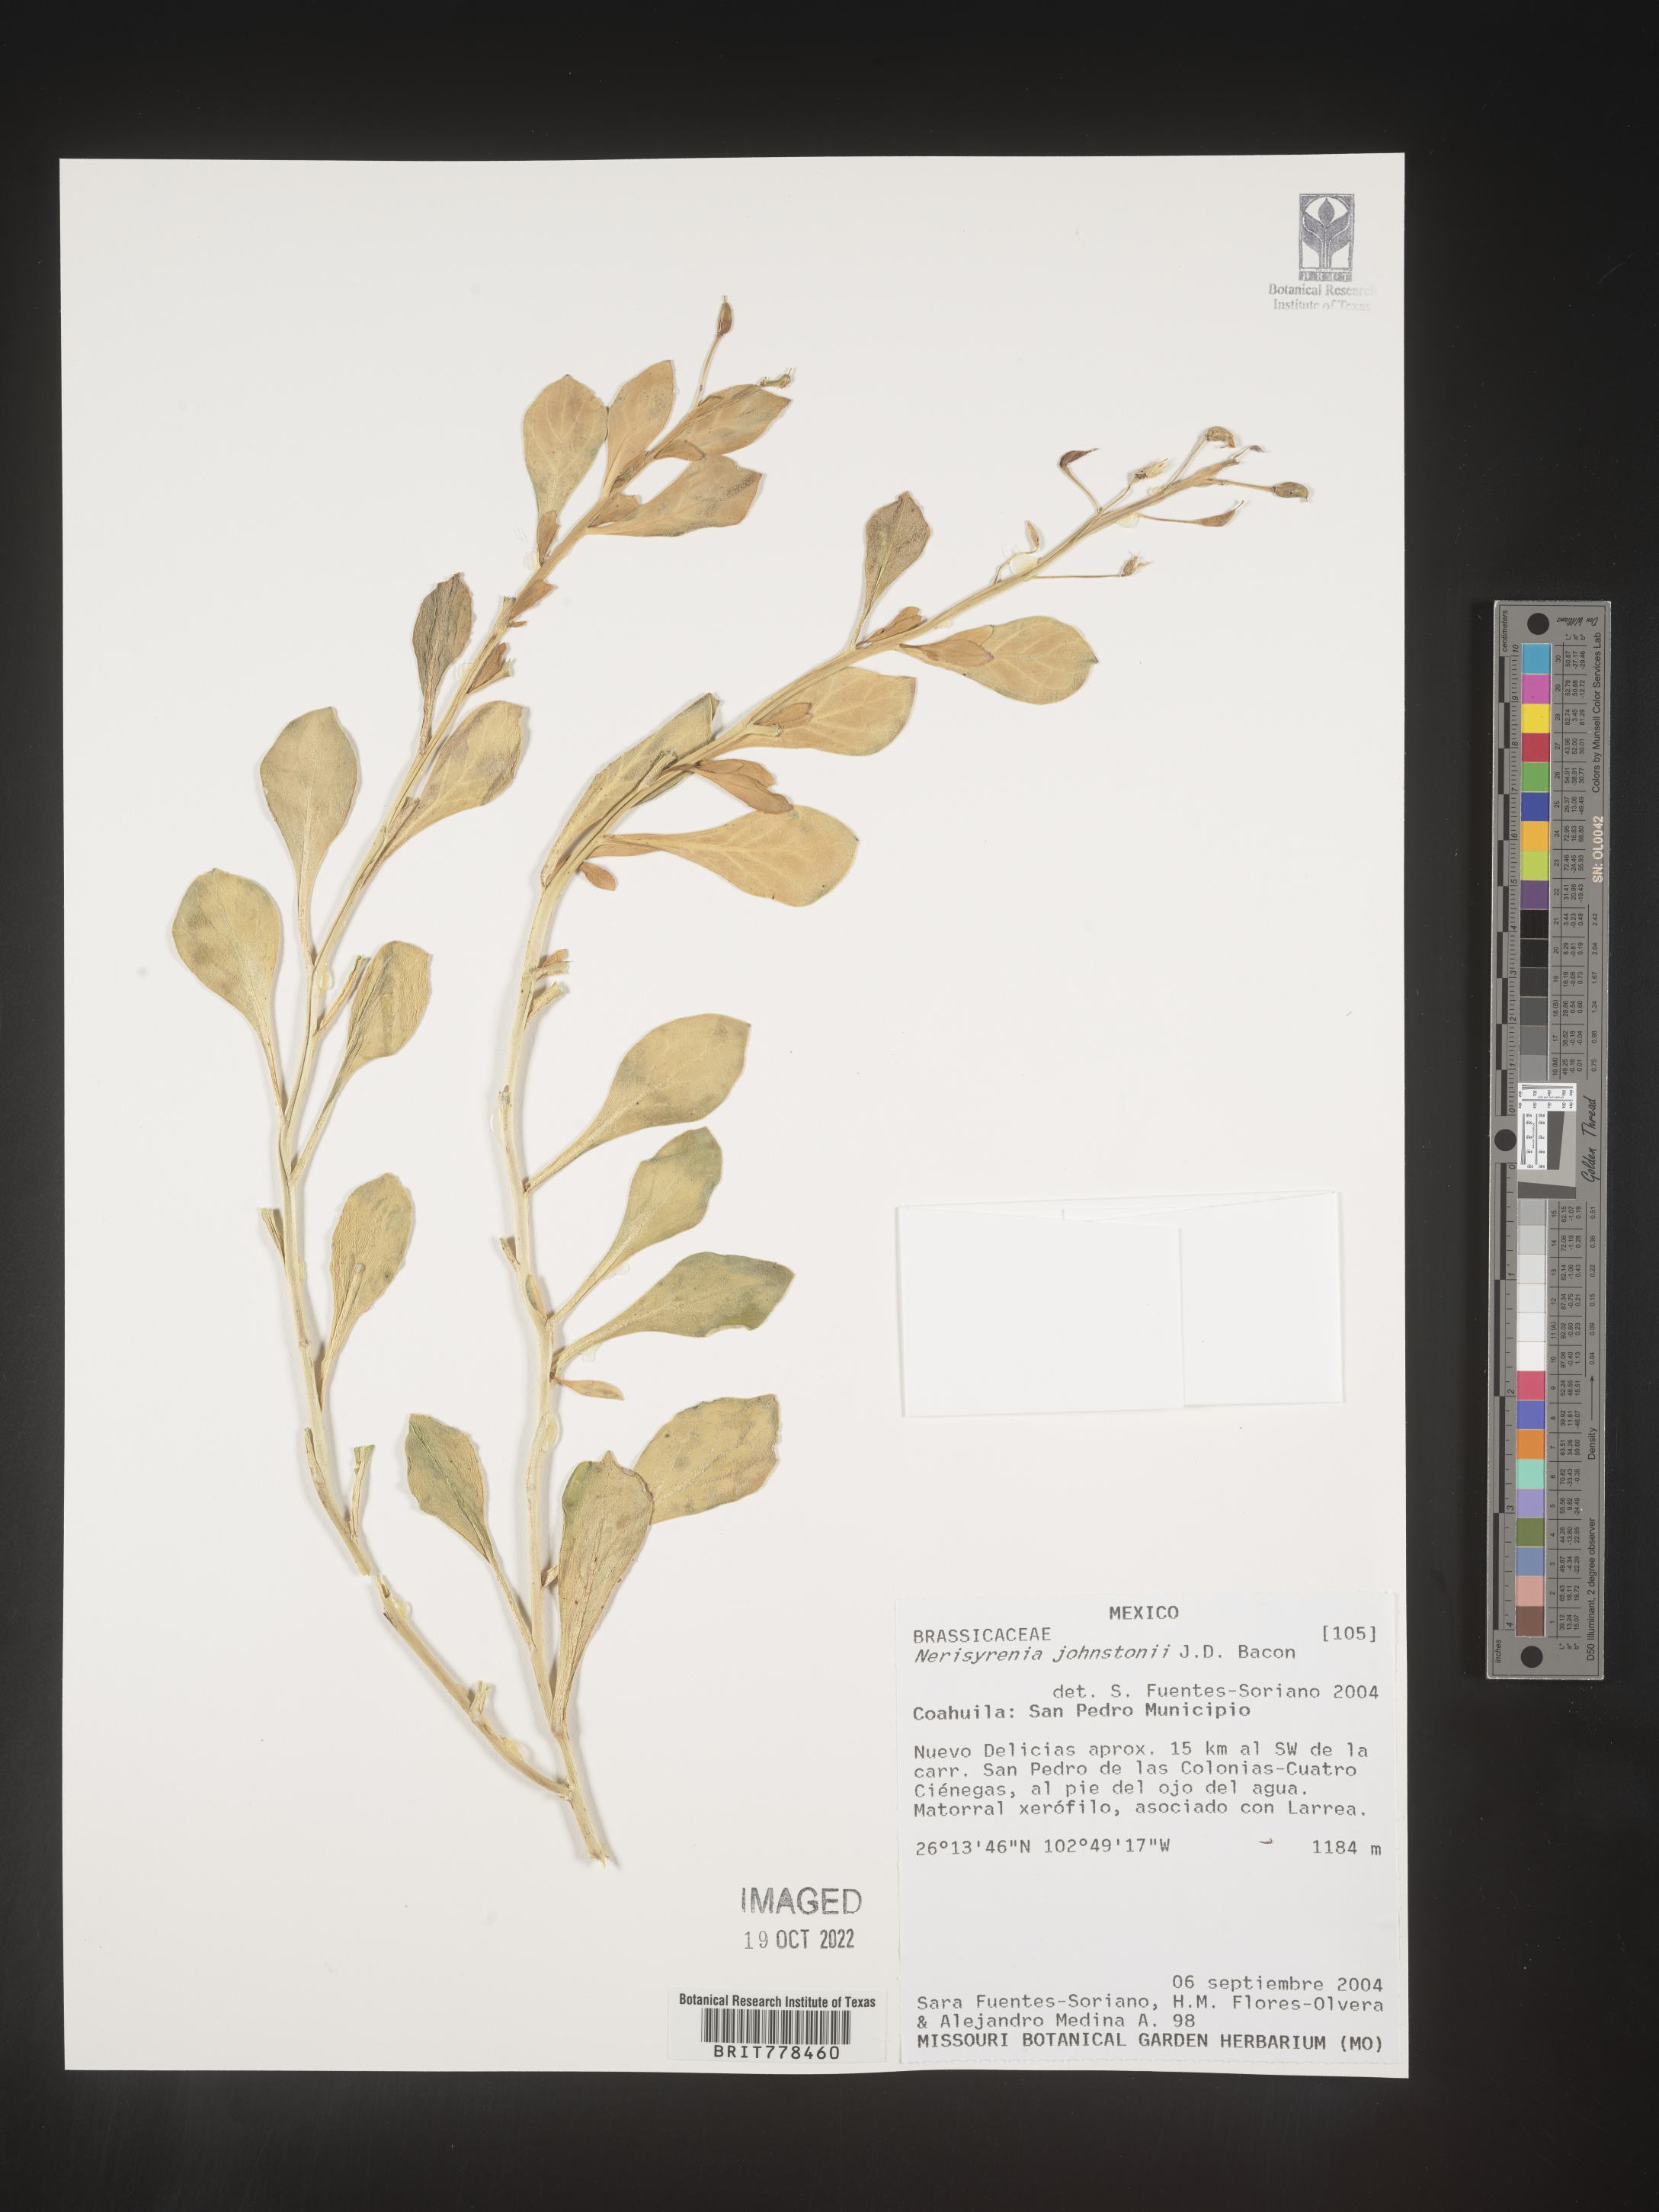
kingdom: Plantae
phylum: Tracheophyta
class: Magnoliopsida
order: Brassicales
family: Brassicaceae
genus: Nerisyrenia
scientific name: Nerisyrenia
